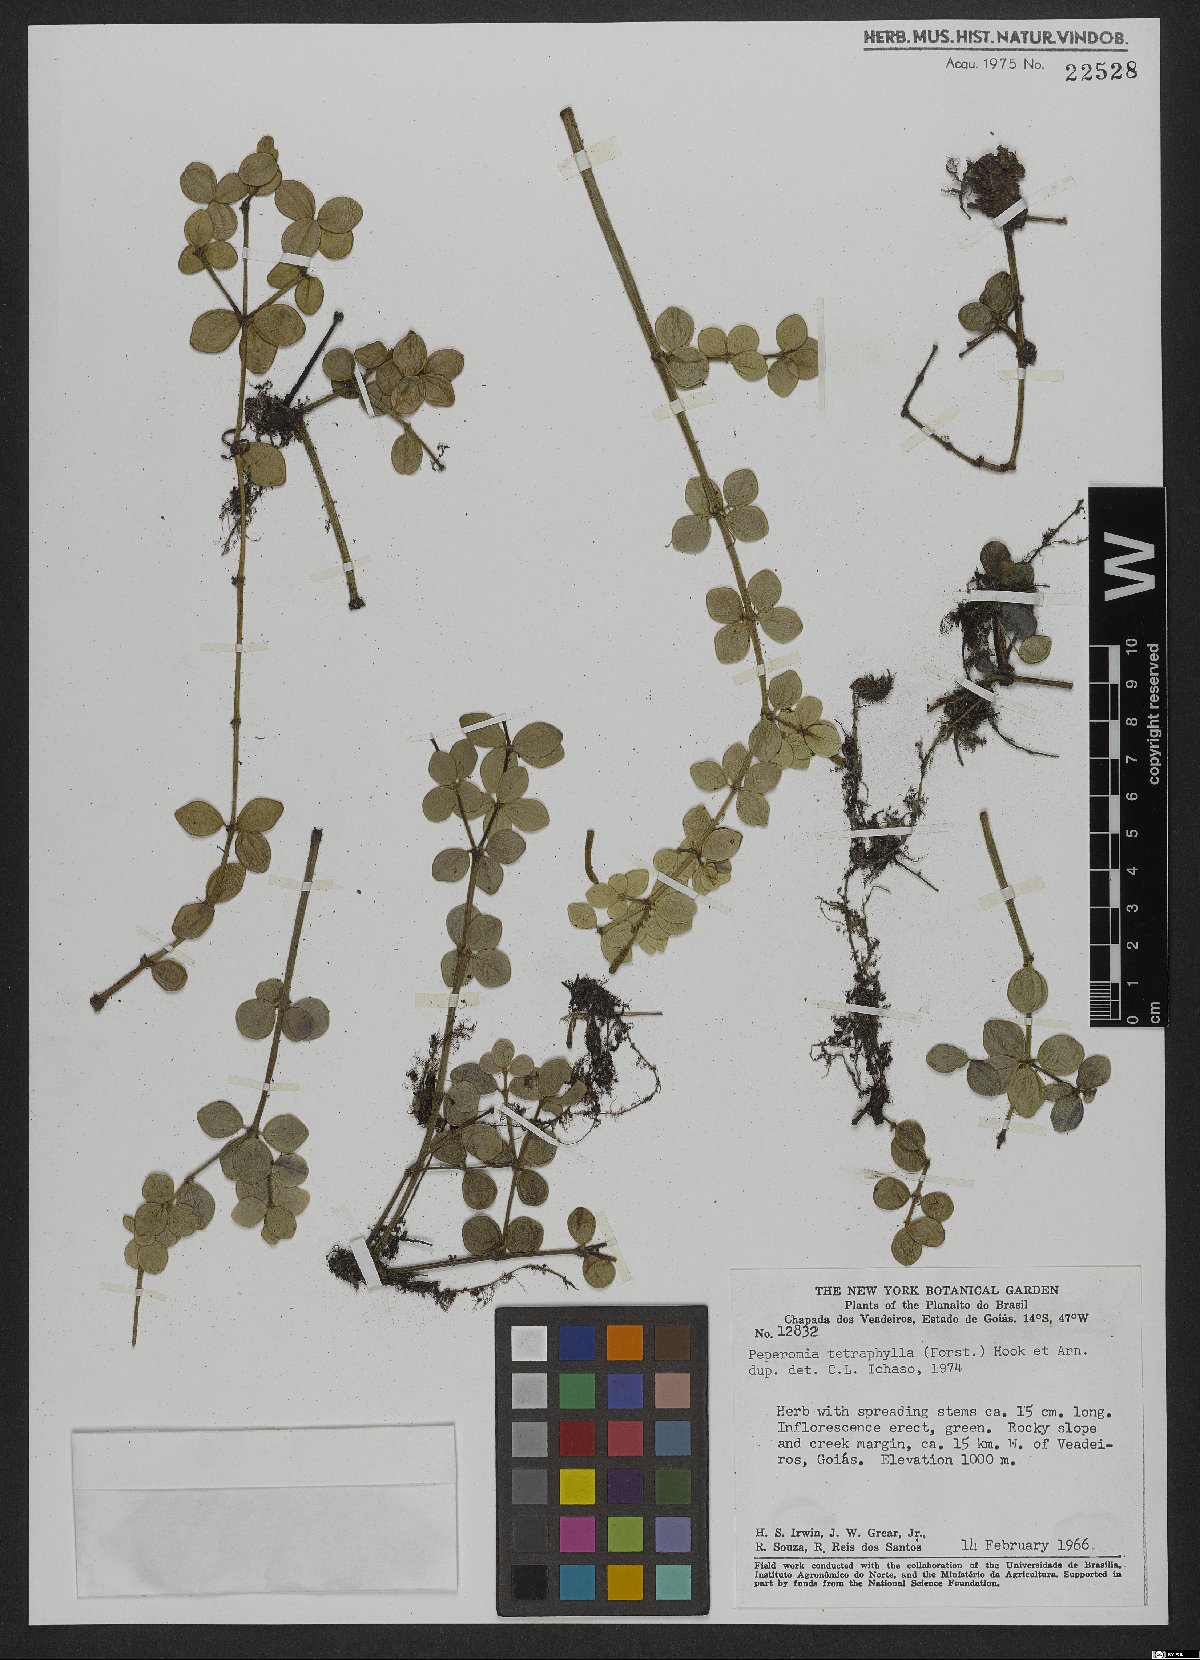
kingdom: Plantae
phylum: Tracheophyta
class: Magnoliopsida
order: Piperales
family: Piperaceae
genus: Peperomia
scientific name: Peperomia tetraphylla
